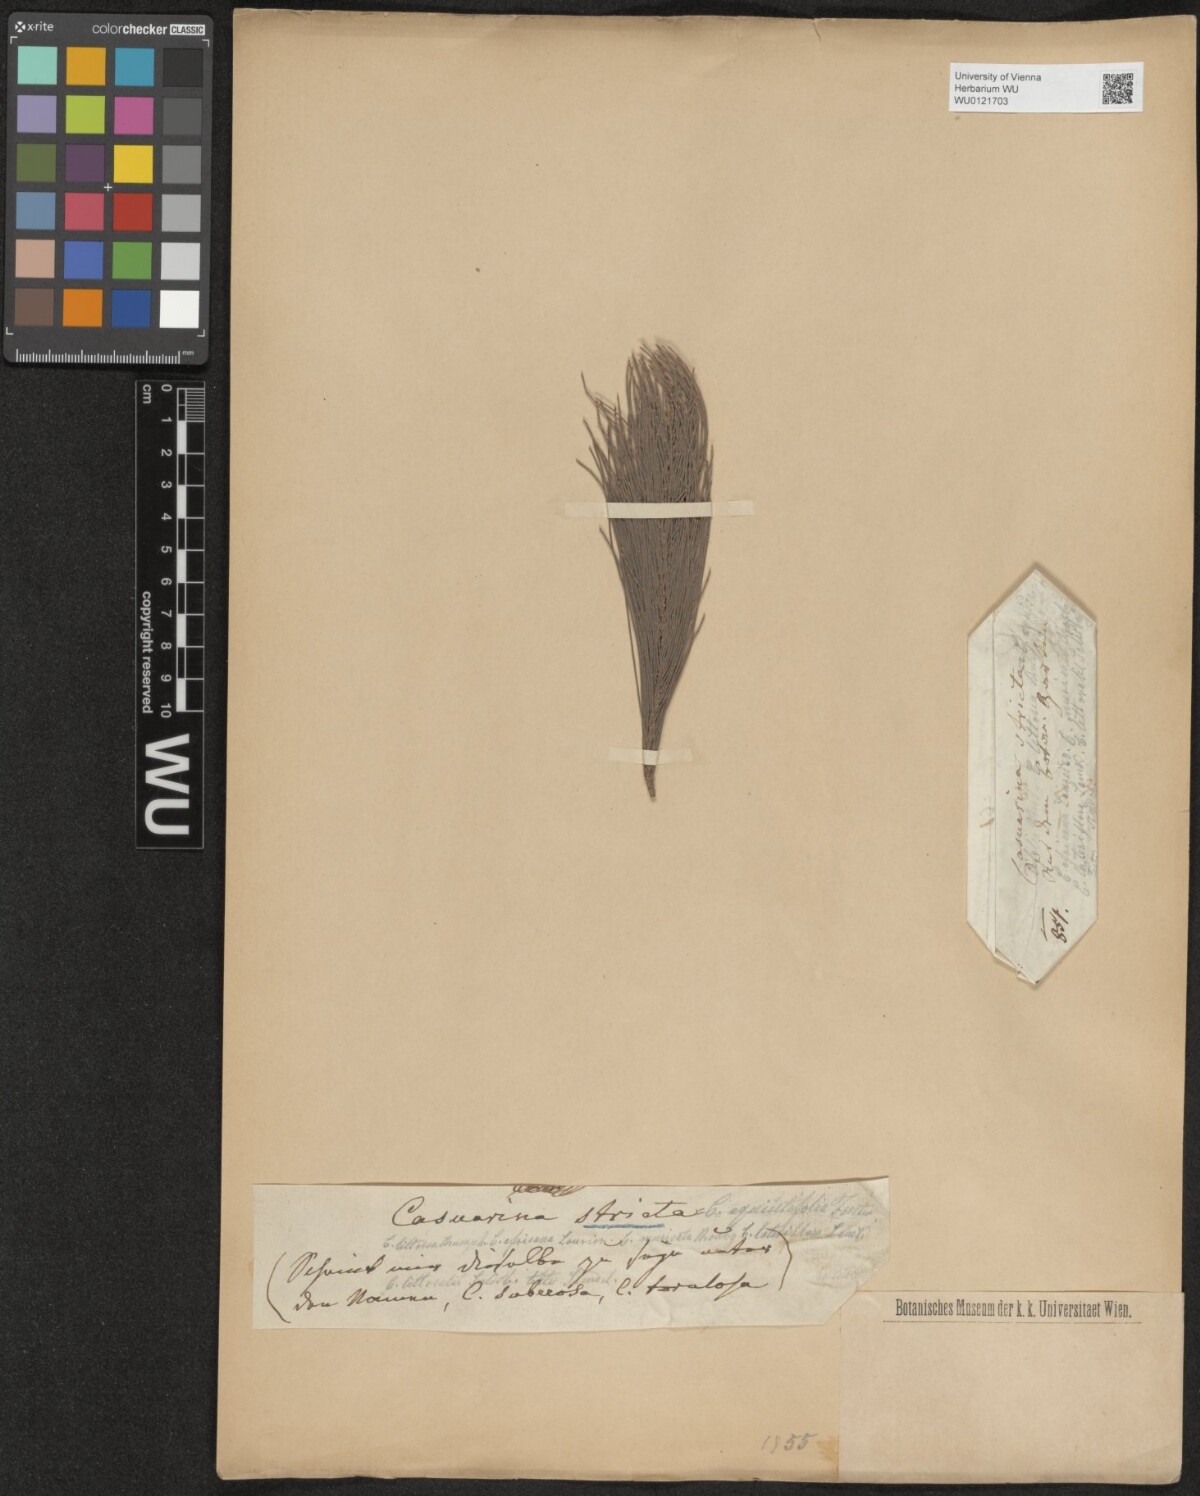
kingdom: Plantae
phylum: Tracheophyta
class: Magnoliopsida
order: Fagales
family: Casuarinaceae
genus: Casuarina
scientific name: Casuarina stricta
